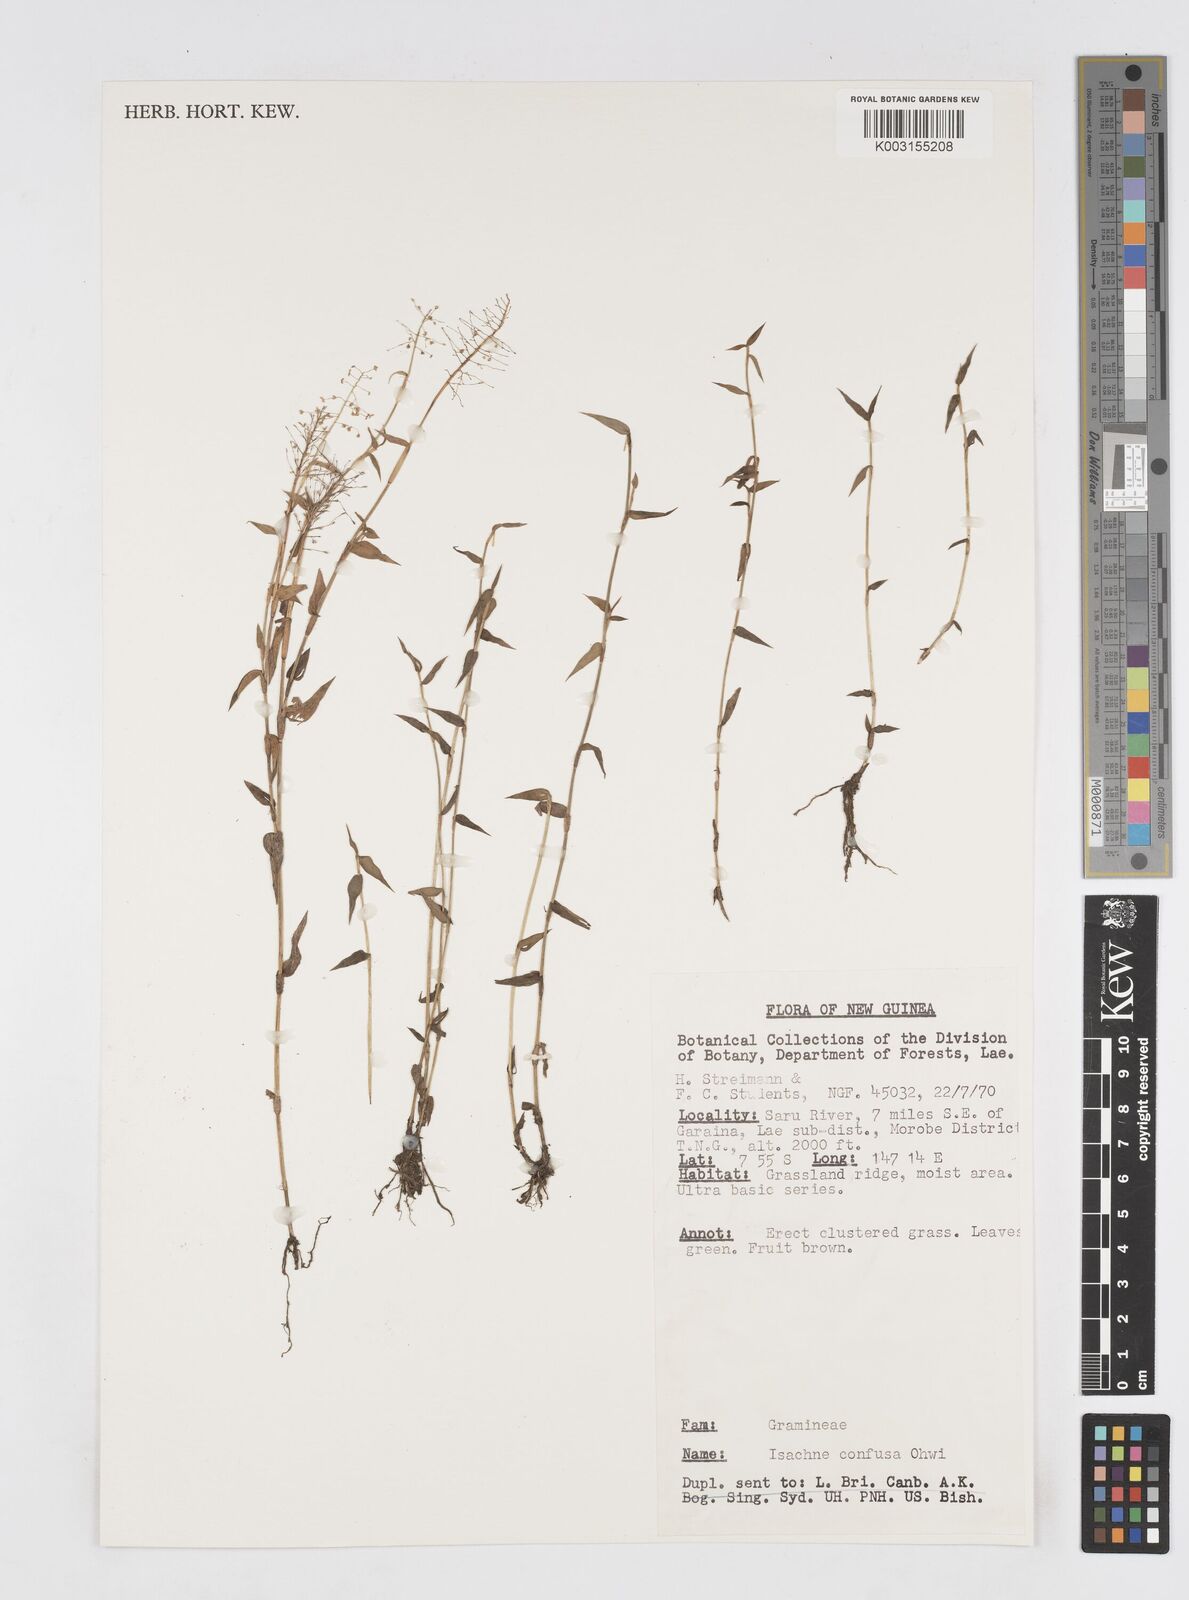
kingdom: Plantae
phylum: Tracheophyta
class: Liliopsida
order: Poales
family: Poaceae
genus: Isachne
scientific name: Isachne confusa
